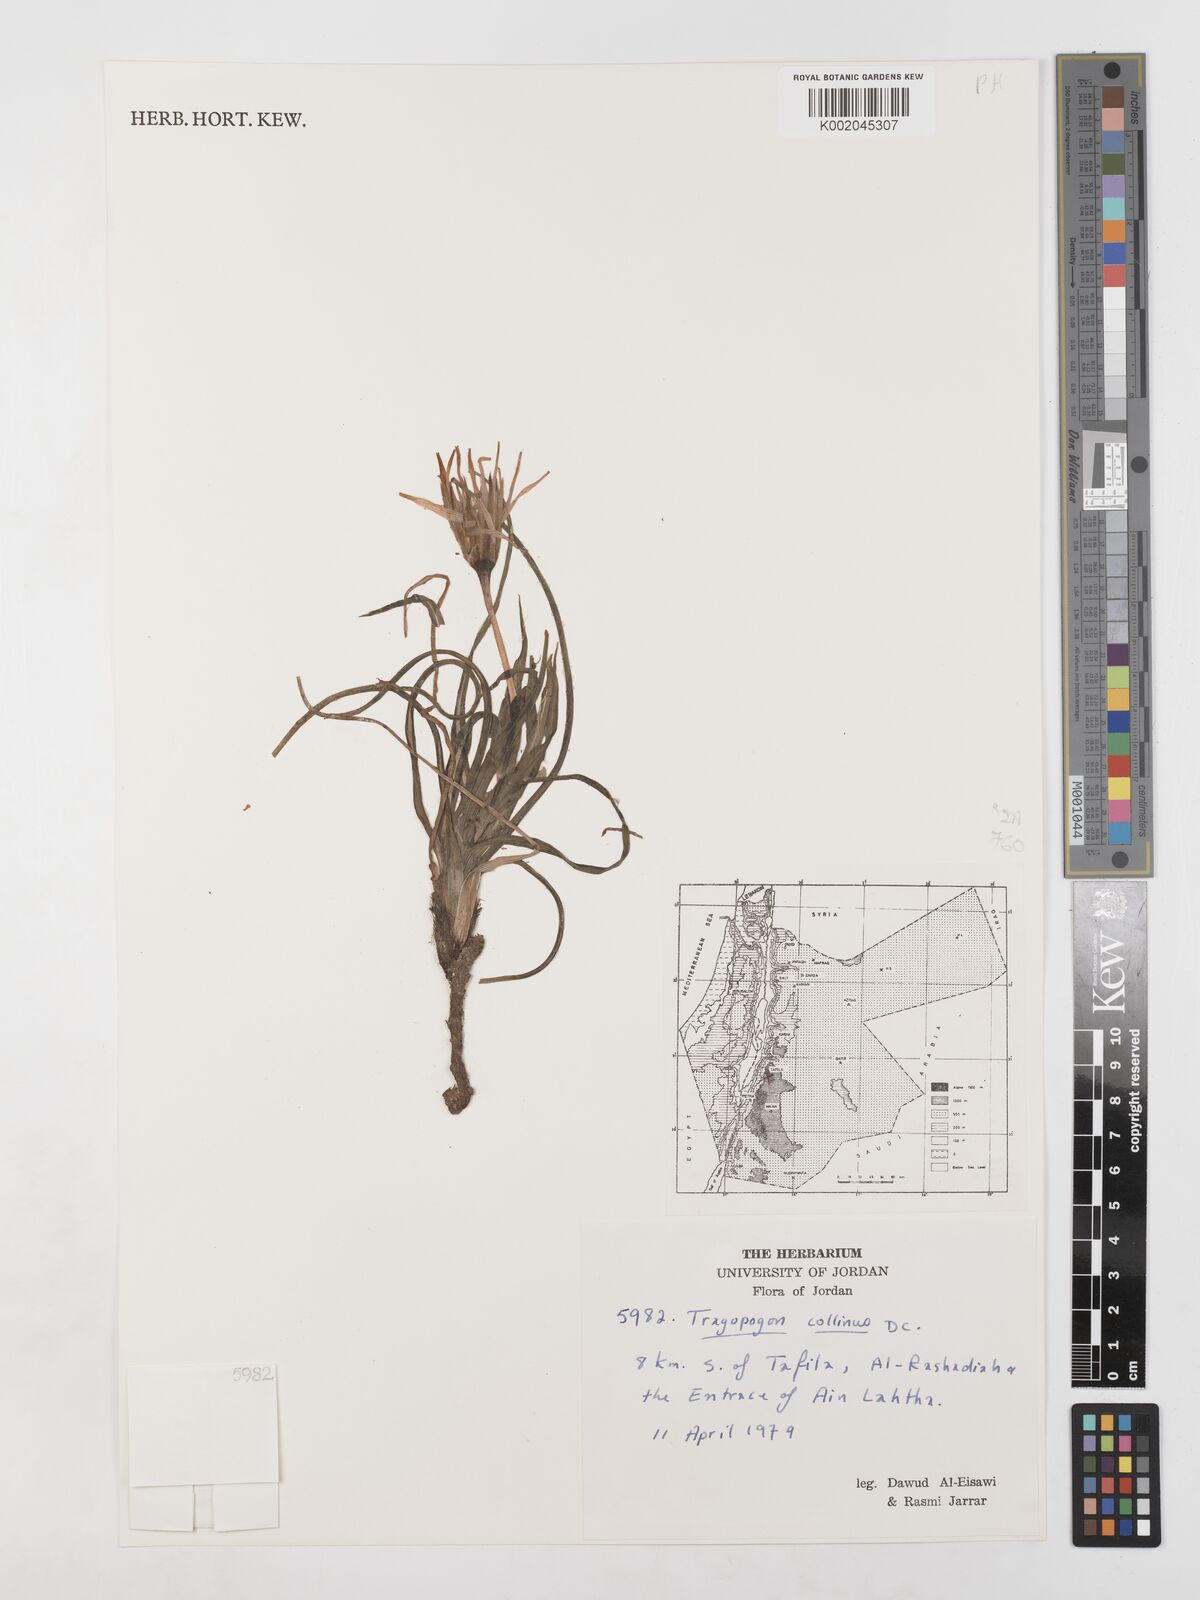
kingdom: Plantae
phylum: Tracheophyta
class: Magnoliopsida
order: Asterales
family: Asteraceae
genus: Tragopogon
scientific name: Tragopogon collinus
